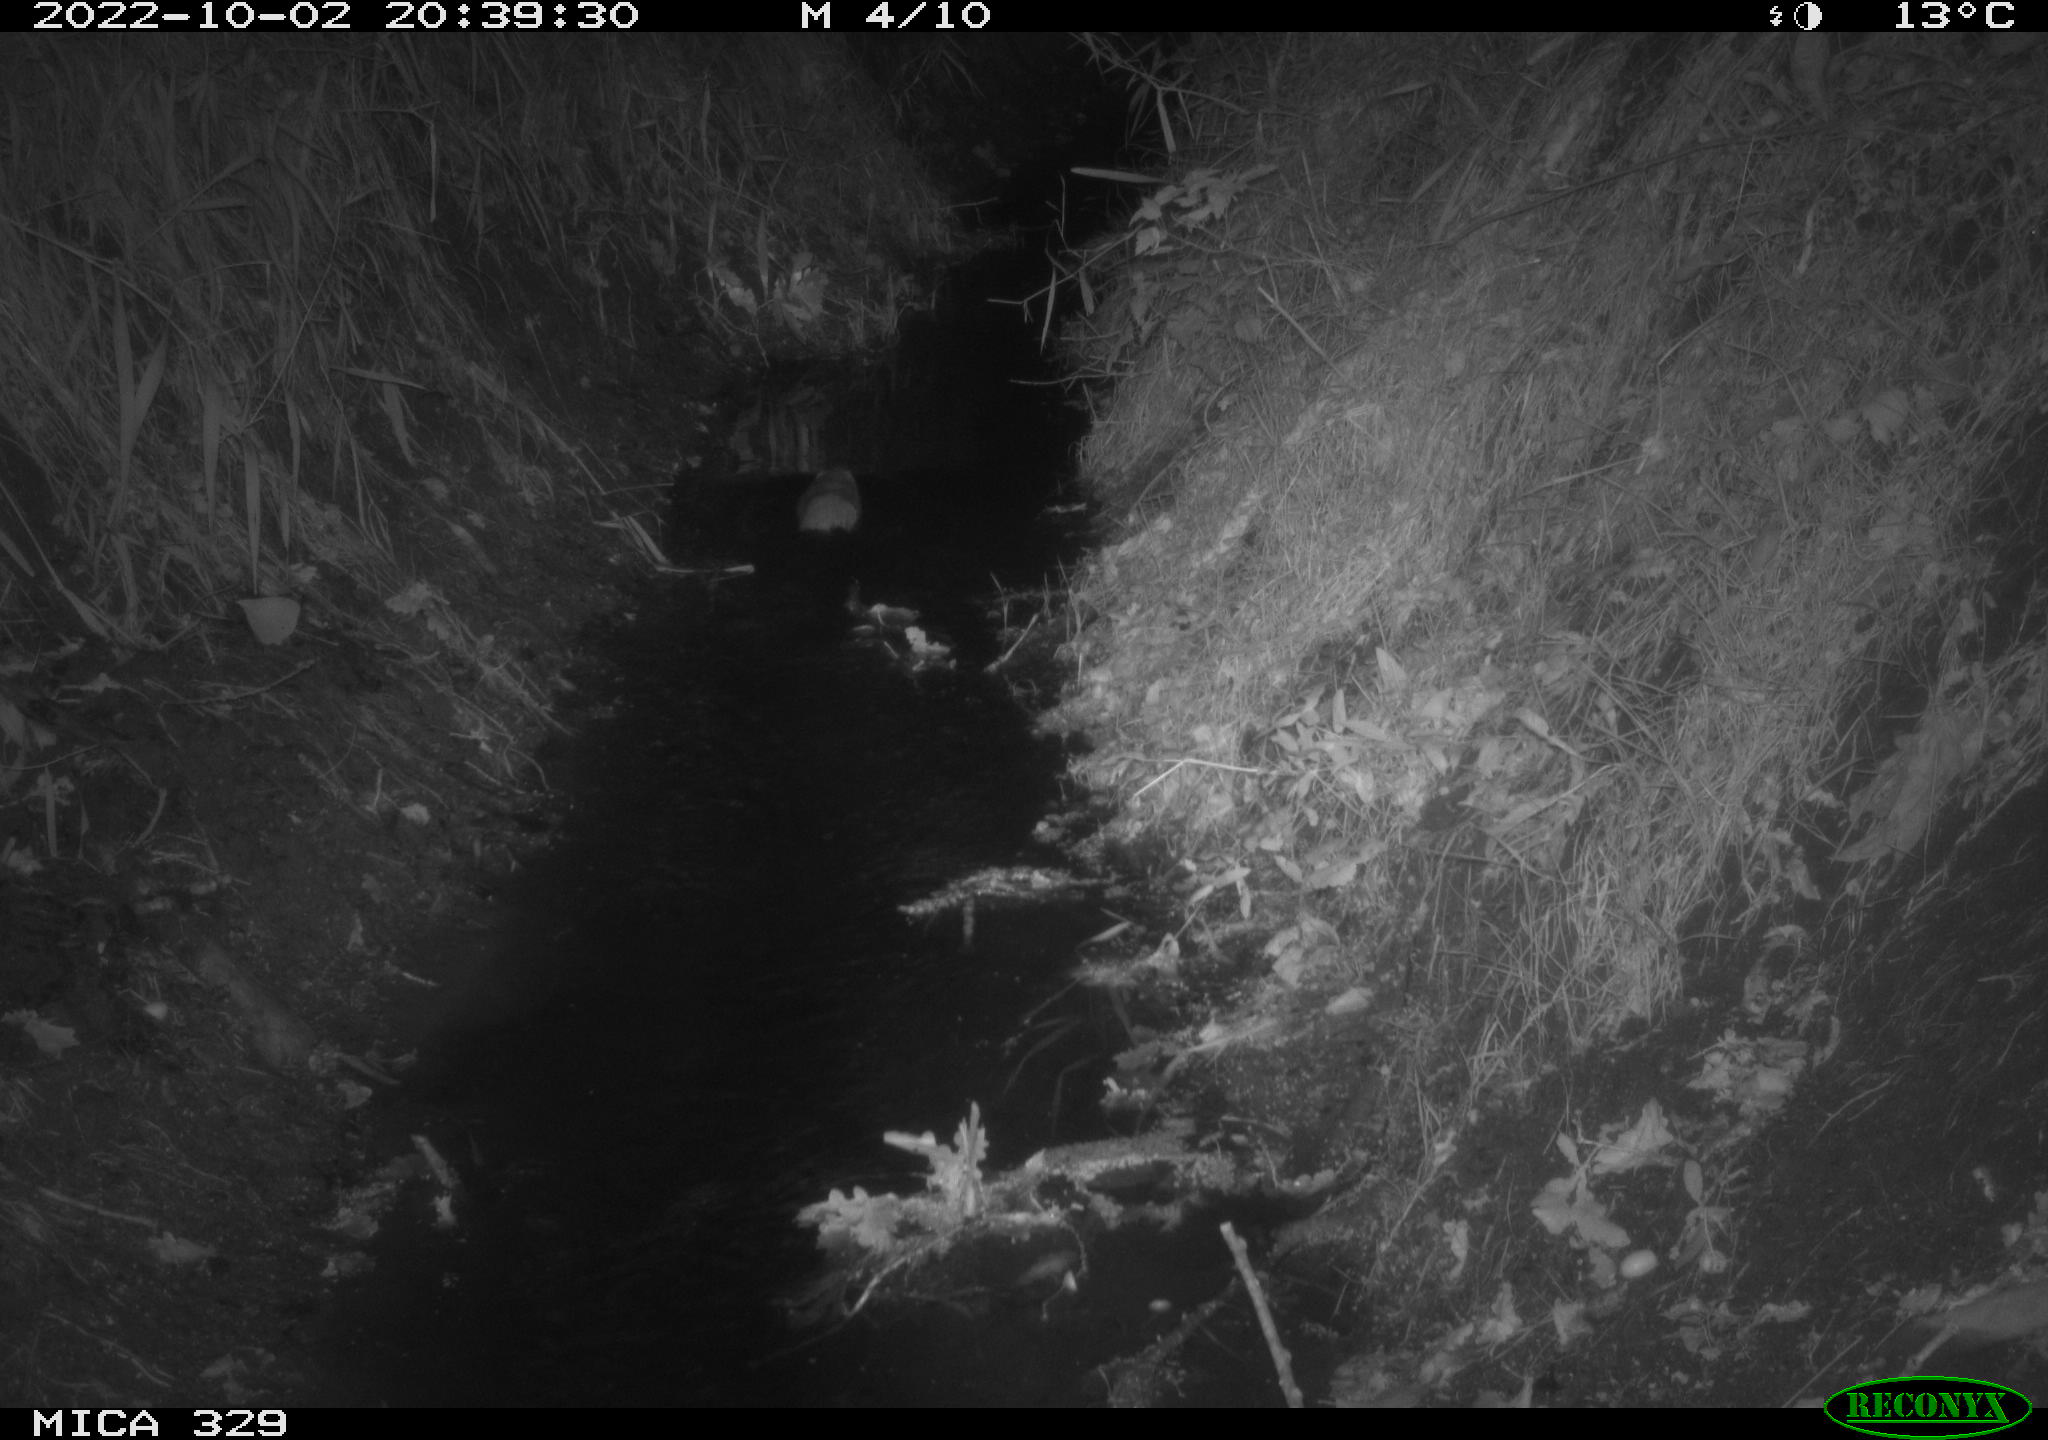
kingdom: Animalia
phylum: Chordata
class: Mammalia
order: Rodentia
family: Cricetidae
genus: Ondatra
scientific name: Ondatra zibethicus
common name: Muskrat
